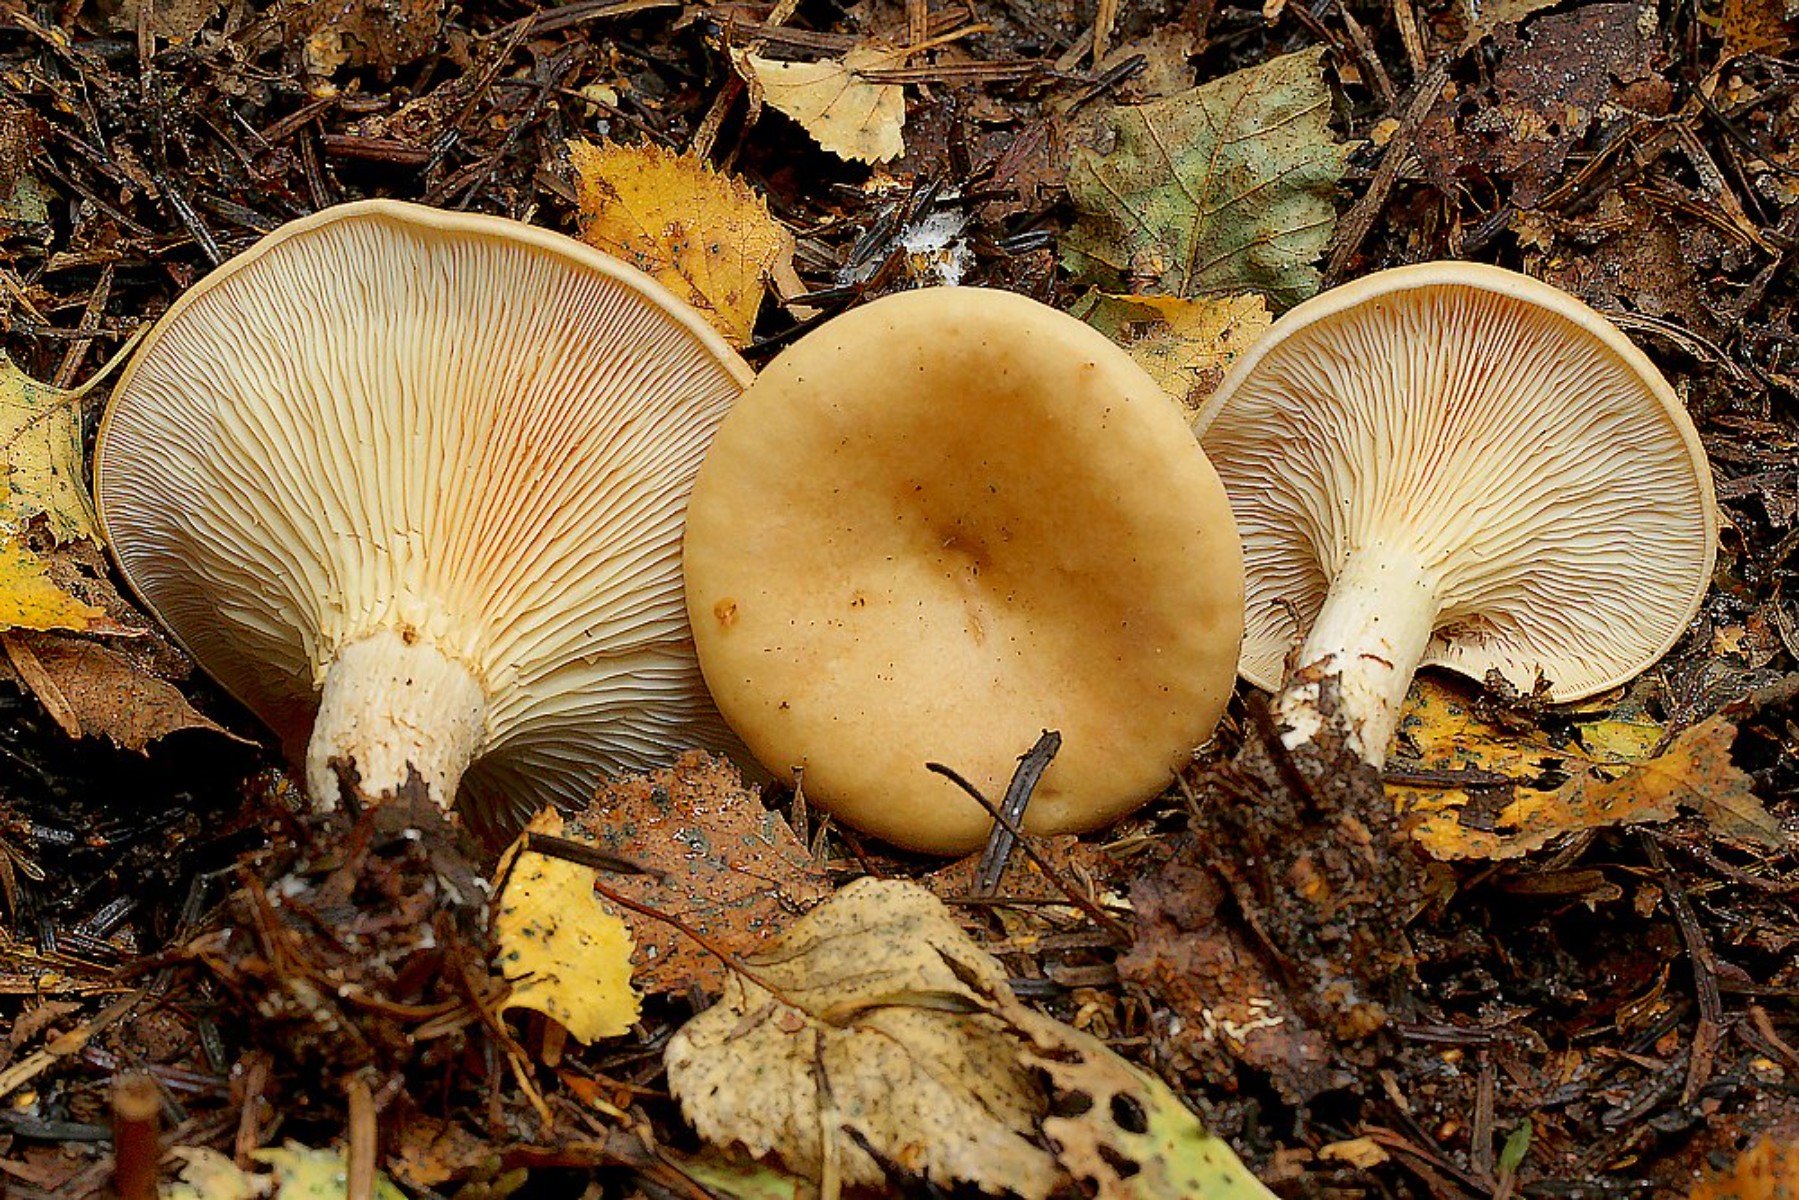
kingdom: Fungi
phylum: Basidiomycota
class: Agaricomycetes
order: Agaricales
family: Tricholomataceae
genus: Paralepista
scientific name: Paralepista flaccida
